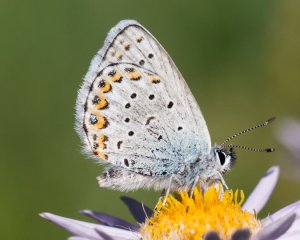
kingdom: Animalia
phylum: Arthropoda
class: Insecta
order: Lepidoptera
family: Lycaenidae
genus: Lycaeides
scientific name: Lycaeides melissa
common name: Melissa Blue
